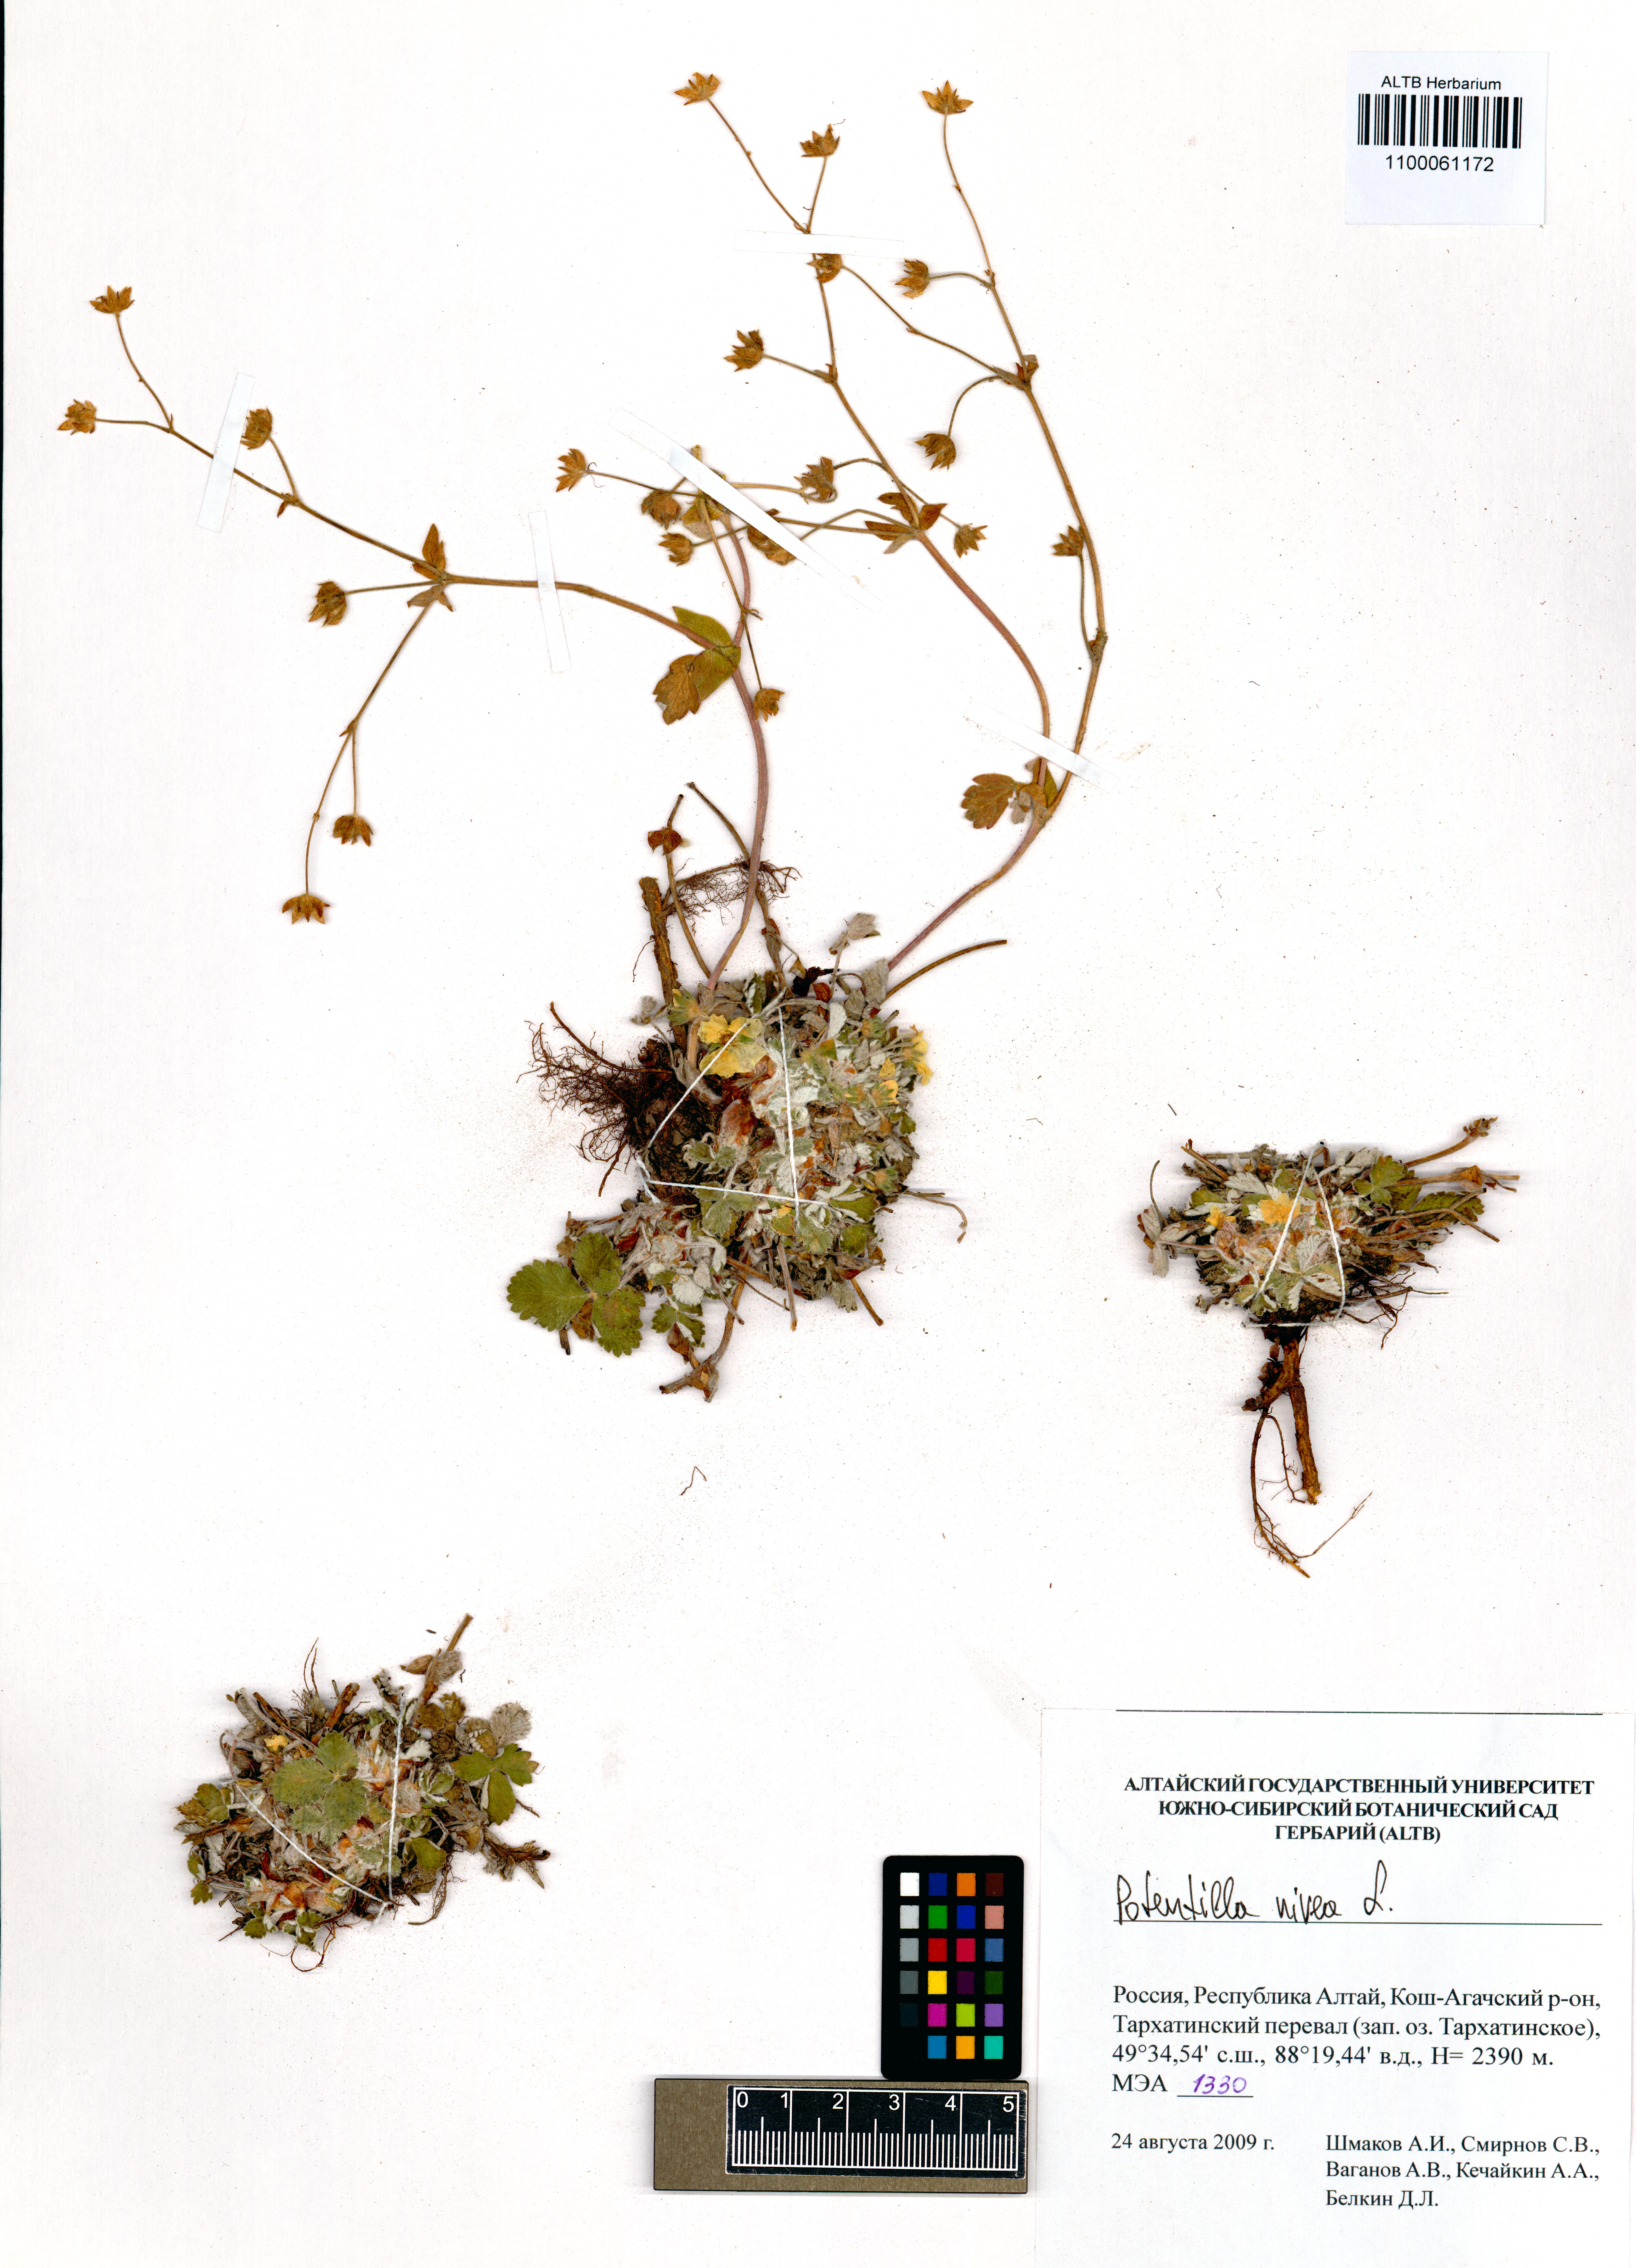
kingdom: Plantae
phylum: Tracheophyta
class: Magnoliopsida
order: Rosales
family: Rosaceae
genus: Potentilla
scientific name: Potentilla nivea
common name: Snow cinquefoil
